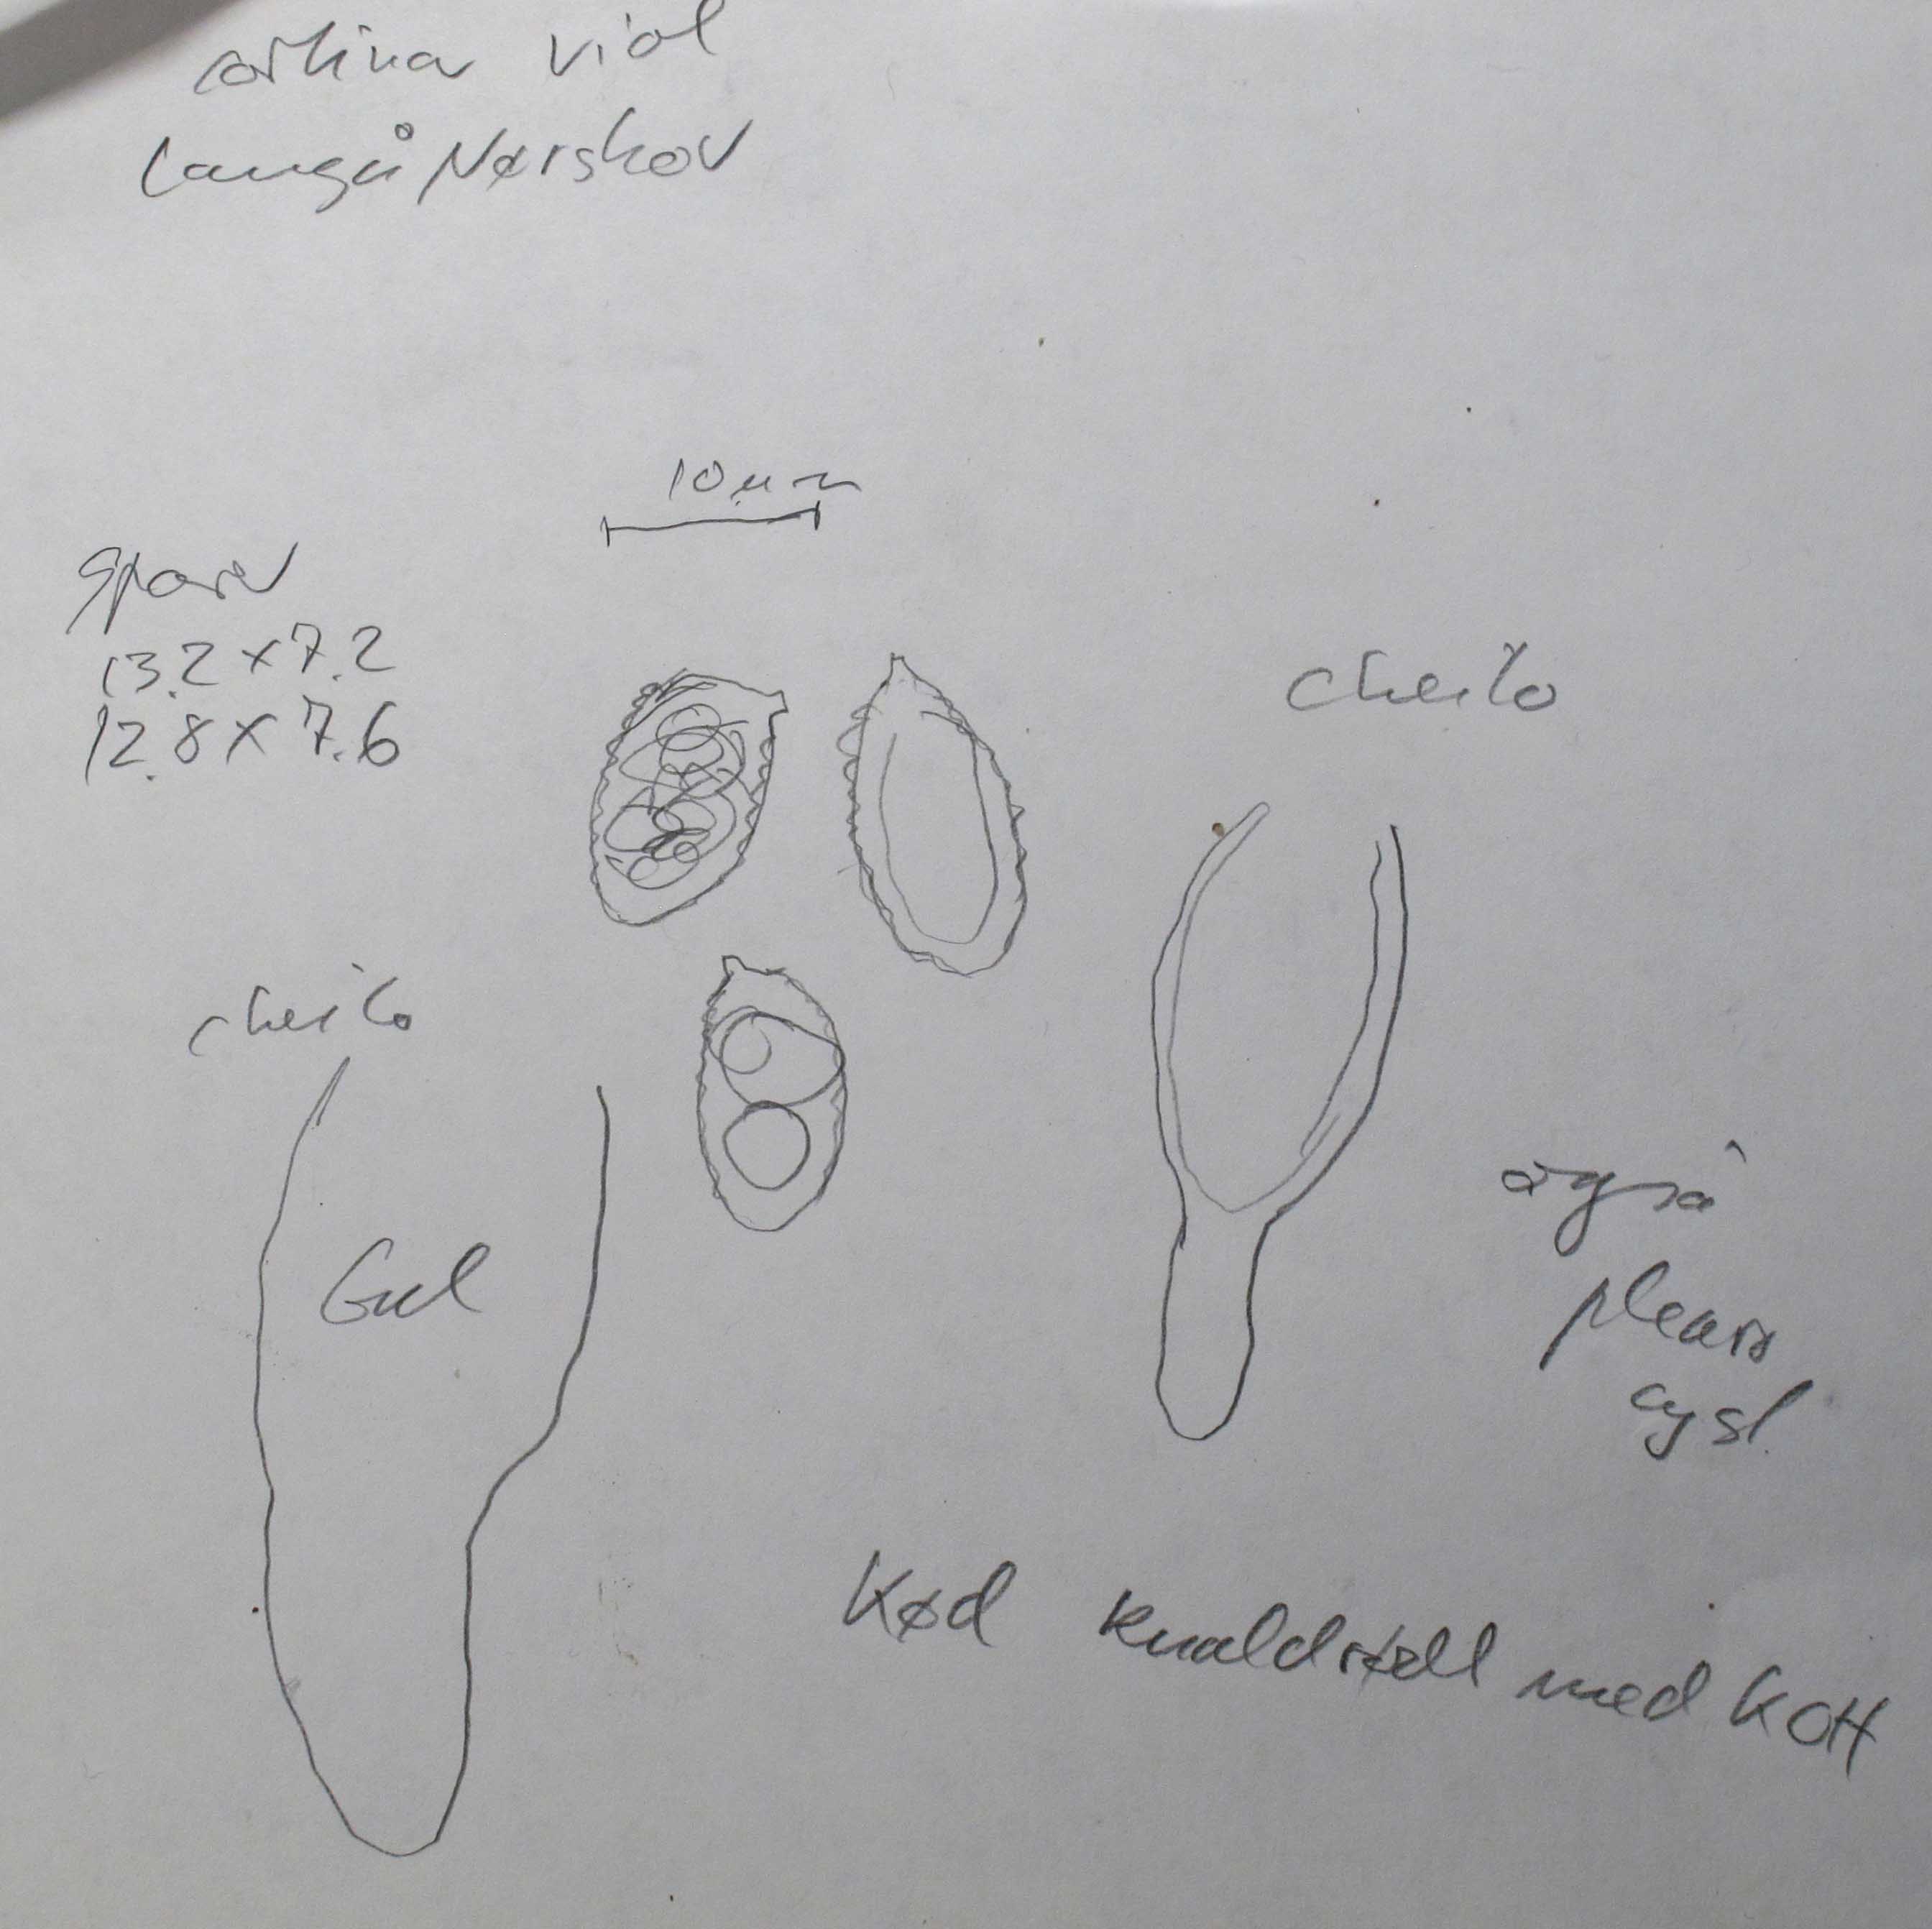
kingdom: Fungi
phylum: Basidiomycota
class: Agaricomycetes
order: Agaricales
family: Cortinariaceae
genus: Cortinarius
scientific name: Cortinarius violaceus
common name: mørkviolet slørhat
